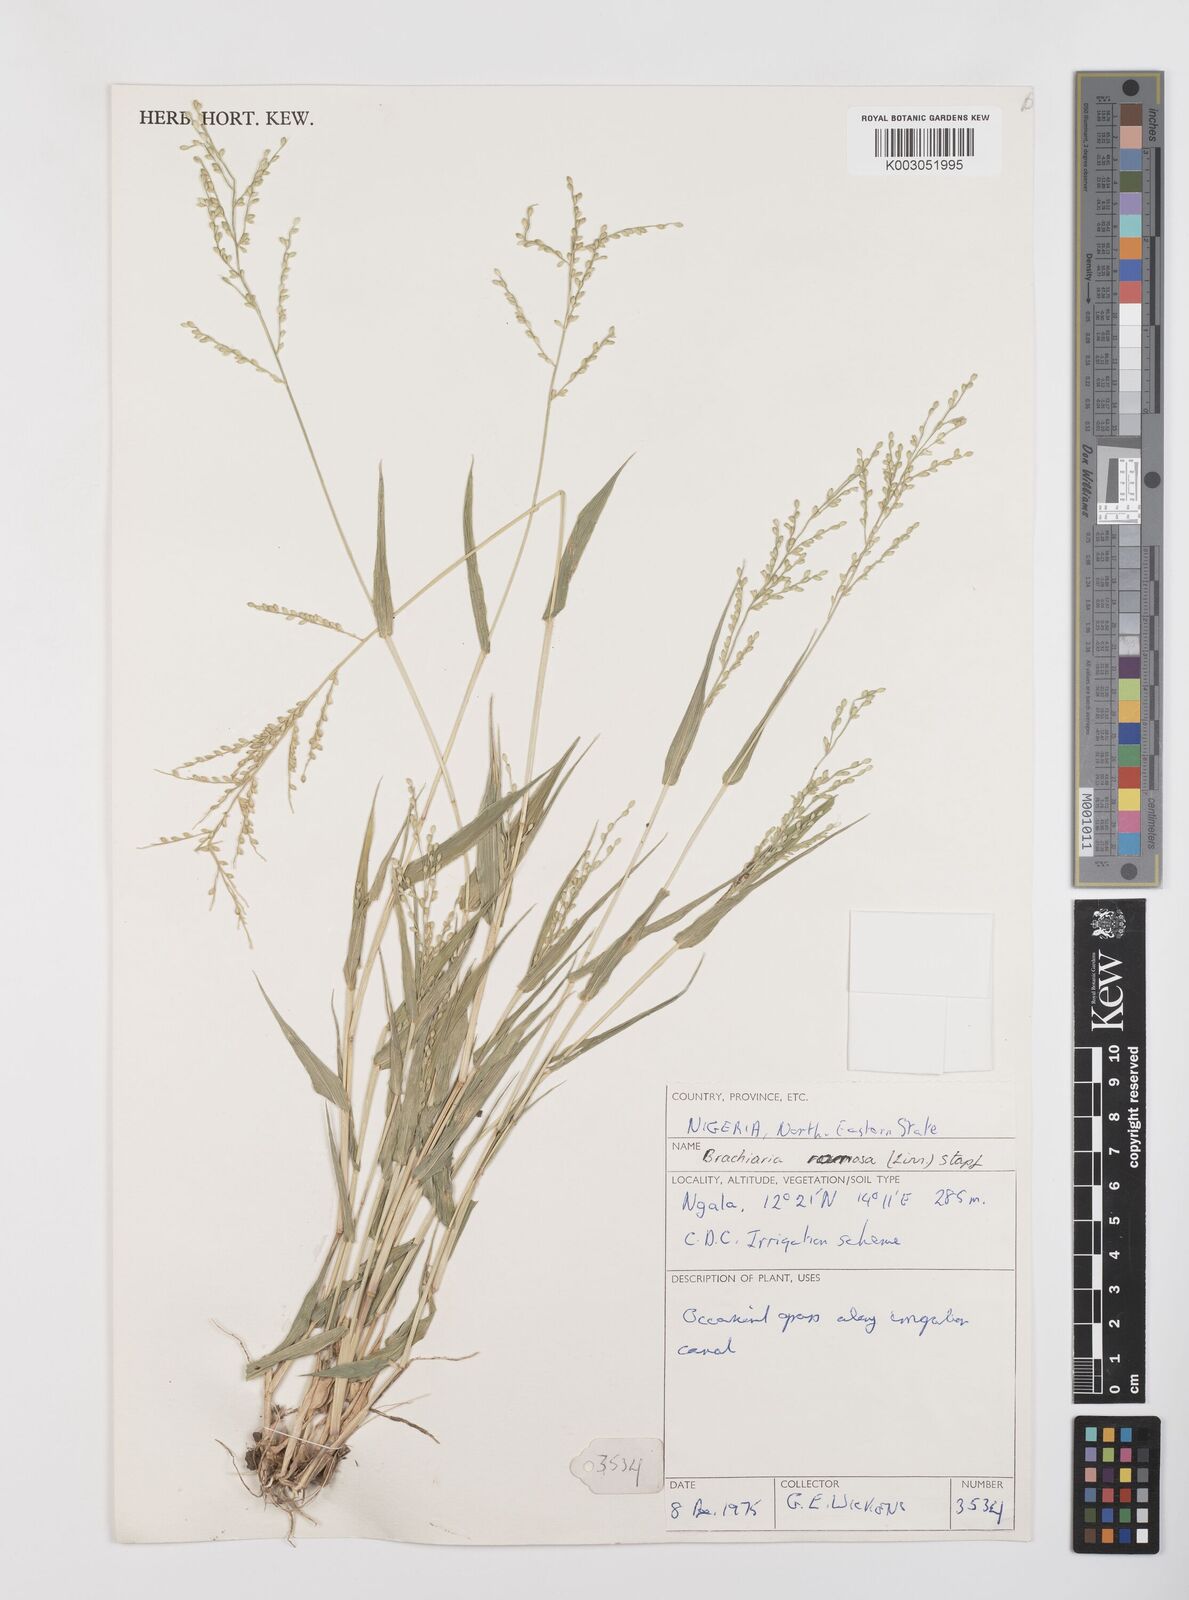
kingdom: Plantae
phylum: Tracheophyta
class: Liliopsida
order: Poales
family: Poaceae
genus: Urochloa
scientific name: Urochloa ramosa
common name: Browntop millet
